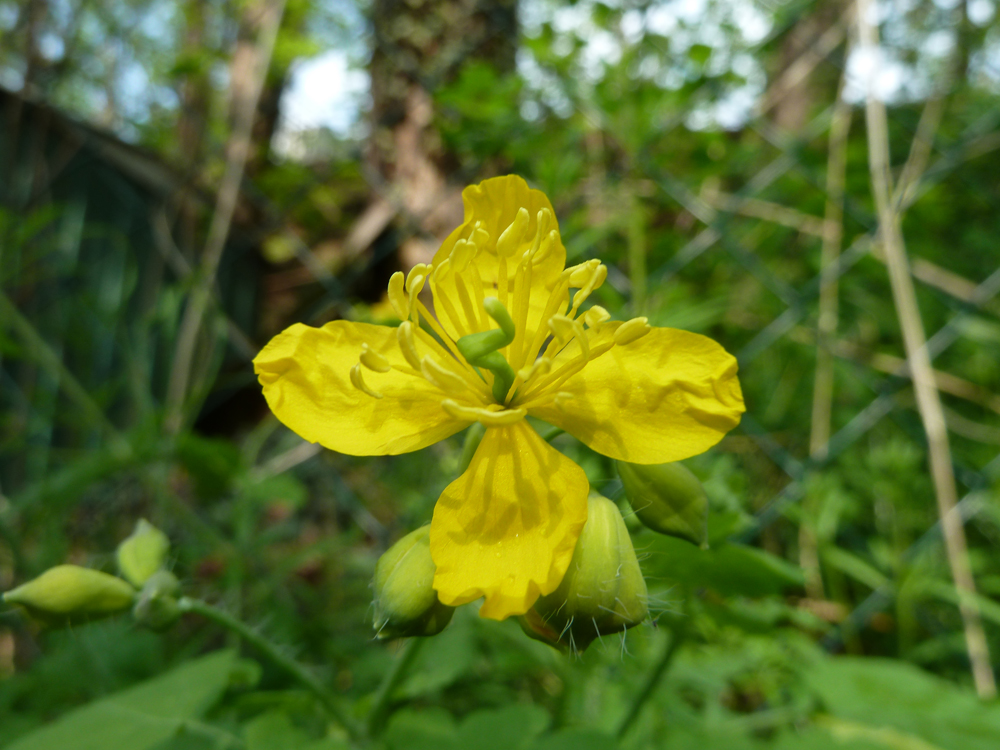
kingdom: Plantae
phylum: Tracheophyta
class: Magnoliopsida
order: Ranunculales
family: Papaveraceae
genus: Chelidonium
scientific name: Chelidonium majus
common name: Greater celandine
